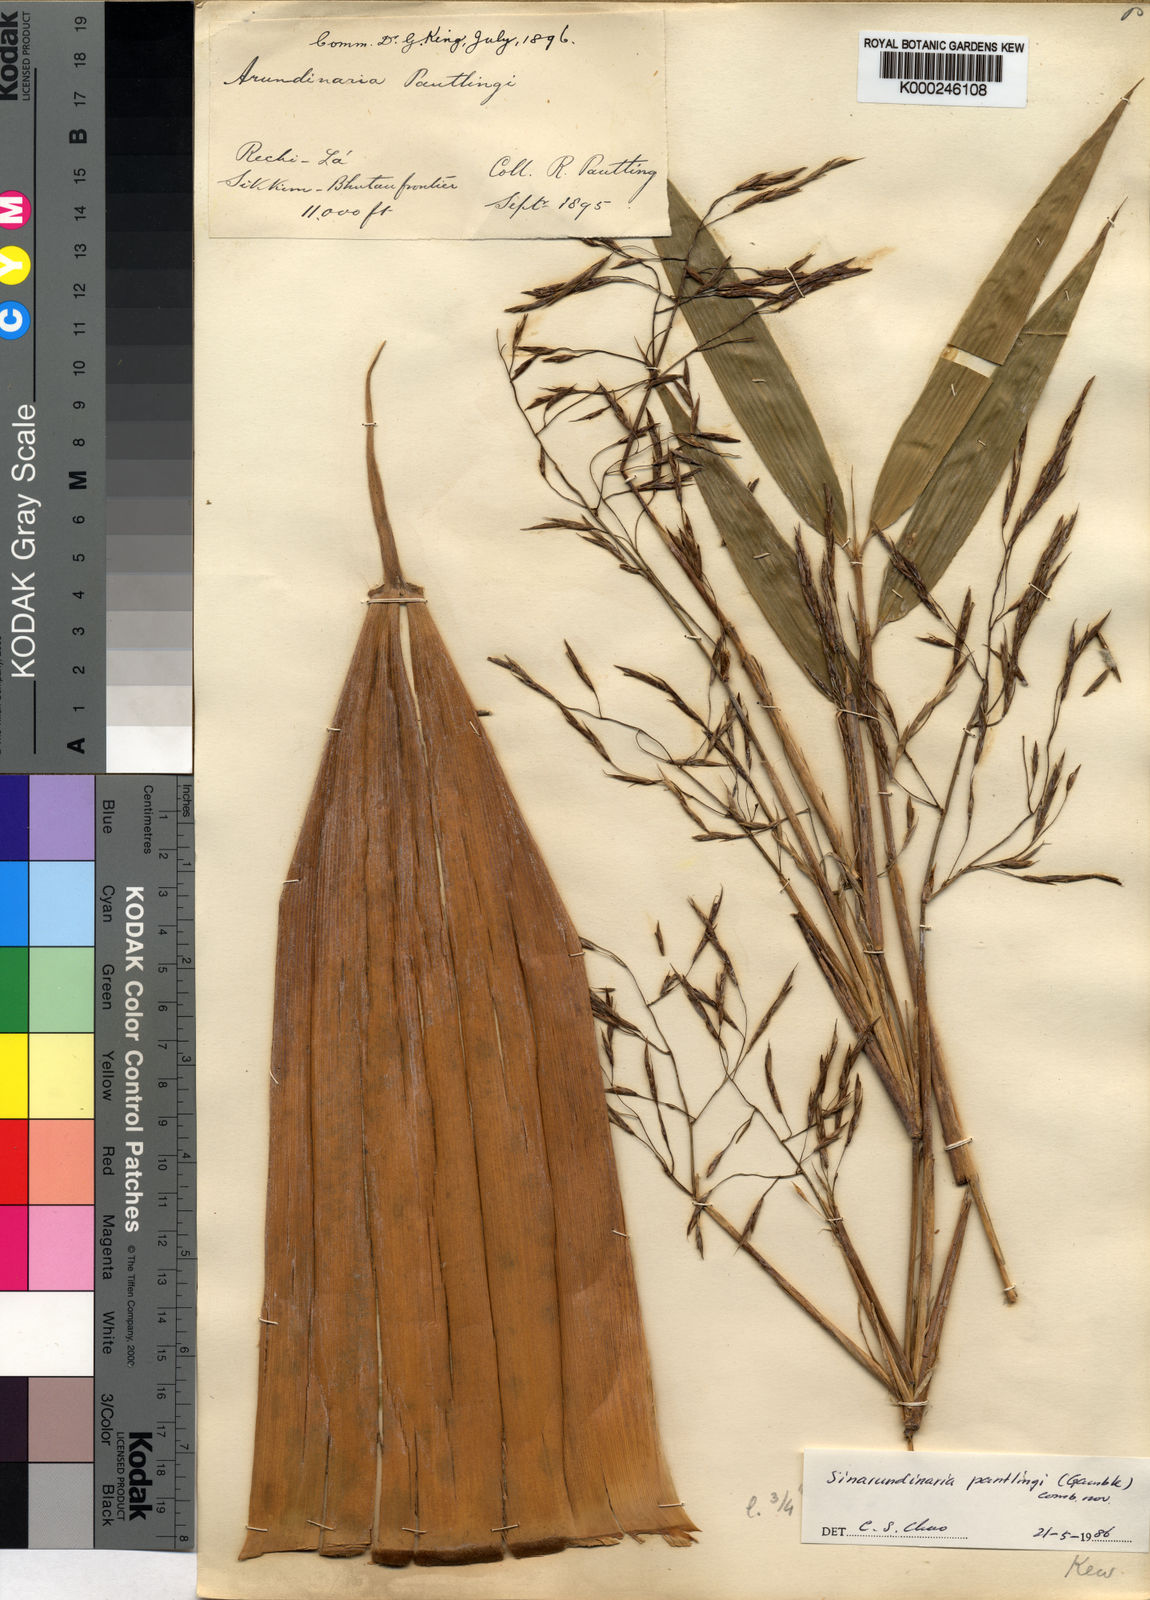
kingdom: Plantae
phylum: Tracheophyta
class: Liliopsida
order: Poales
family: Poaceae
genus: Yushania
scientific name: Yushania pantlingii
